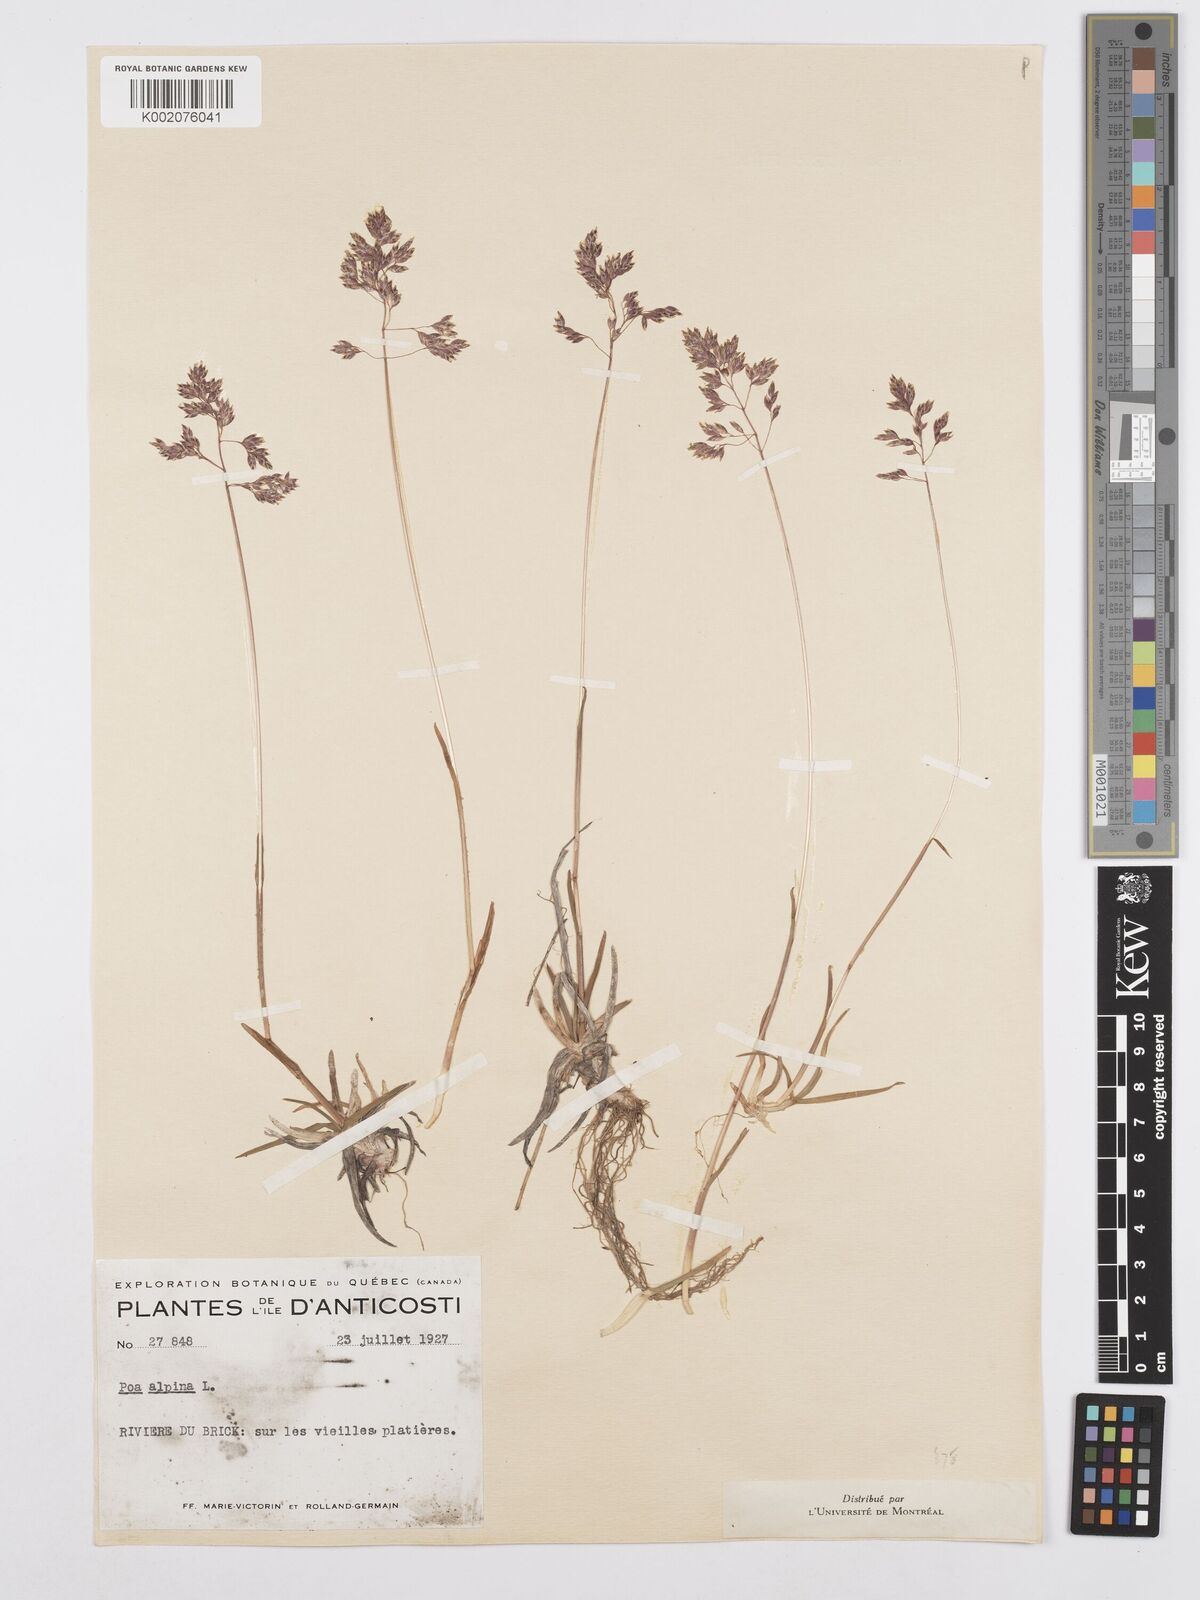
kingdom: Plantae
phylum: Tracheophyta
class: Liliopsida
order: Poales
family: Poaceae
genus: Poa
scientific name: Poa alpina
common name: Alpine bluegrass
